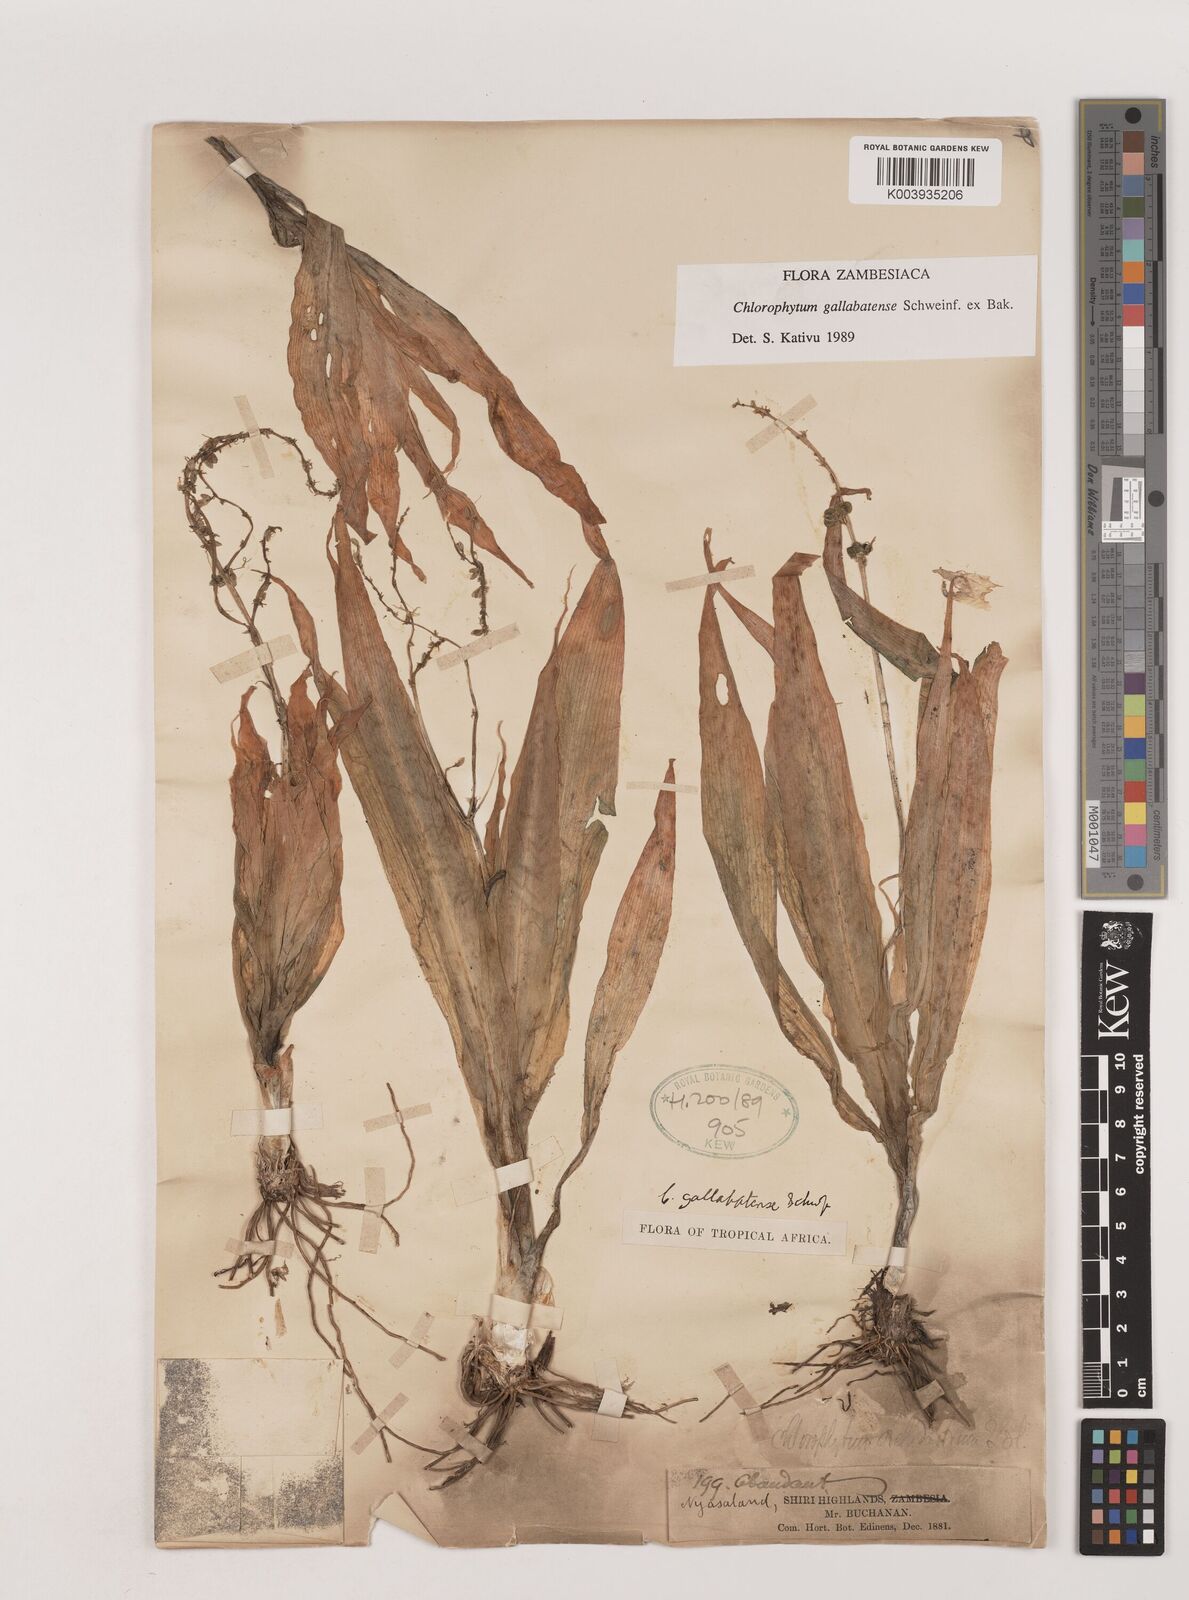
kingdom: Plantae
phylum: Tracheophyta
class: Liliopsida
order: Asparagales
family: Asparagaceae
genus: Chlorophytum
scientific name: Chlorophytum gallabatense
